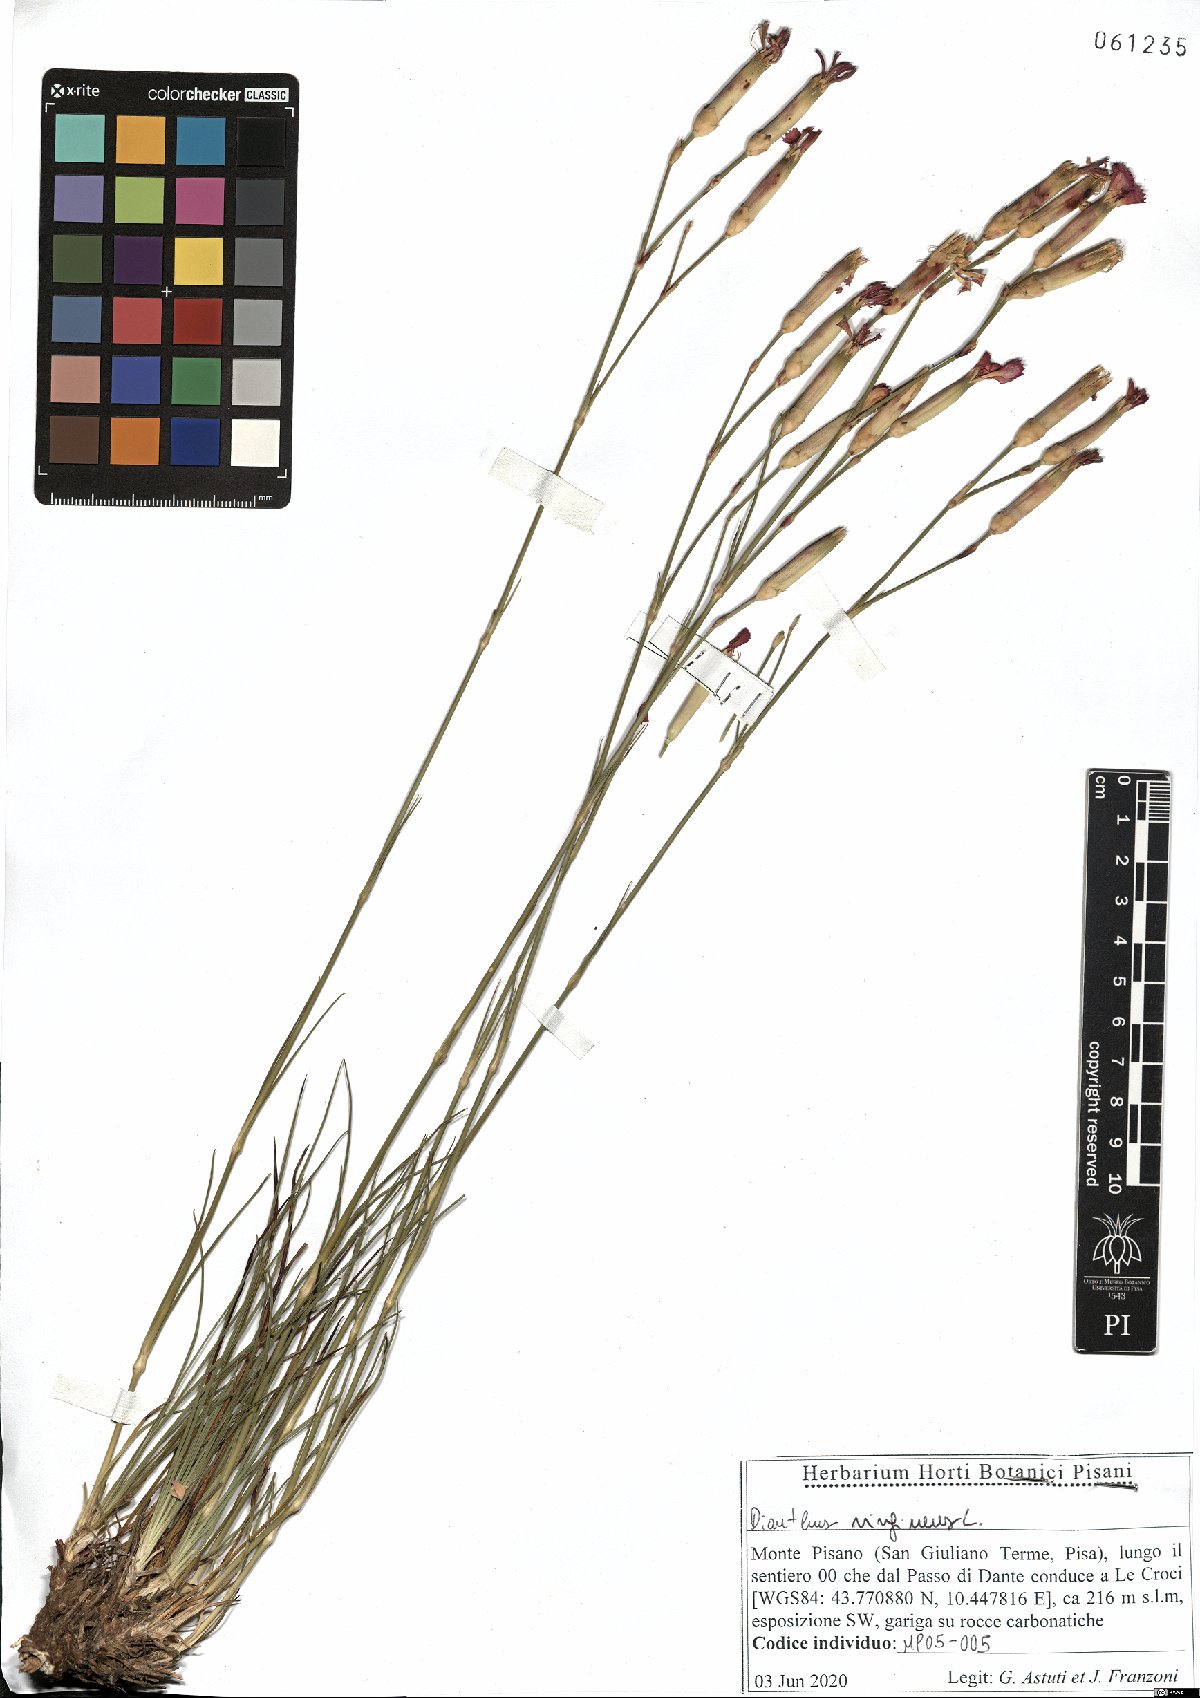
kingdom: Plantae
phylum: Tracheophyta
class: Magnoliopsida
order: Caryophyllales
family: Caryophyllaceae
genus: Dianthus
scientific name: Dianthus virgineus
